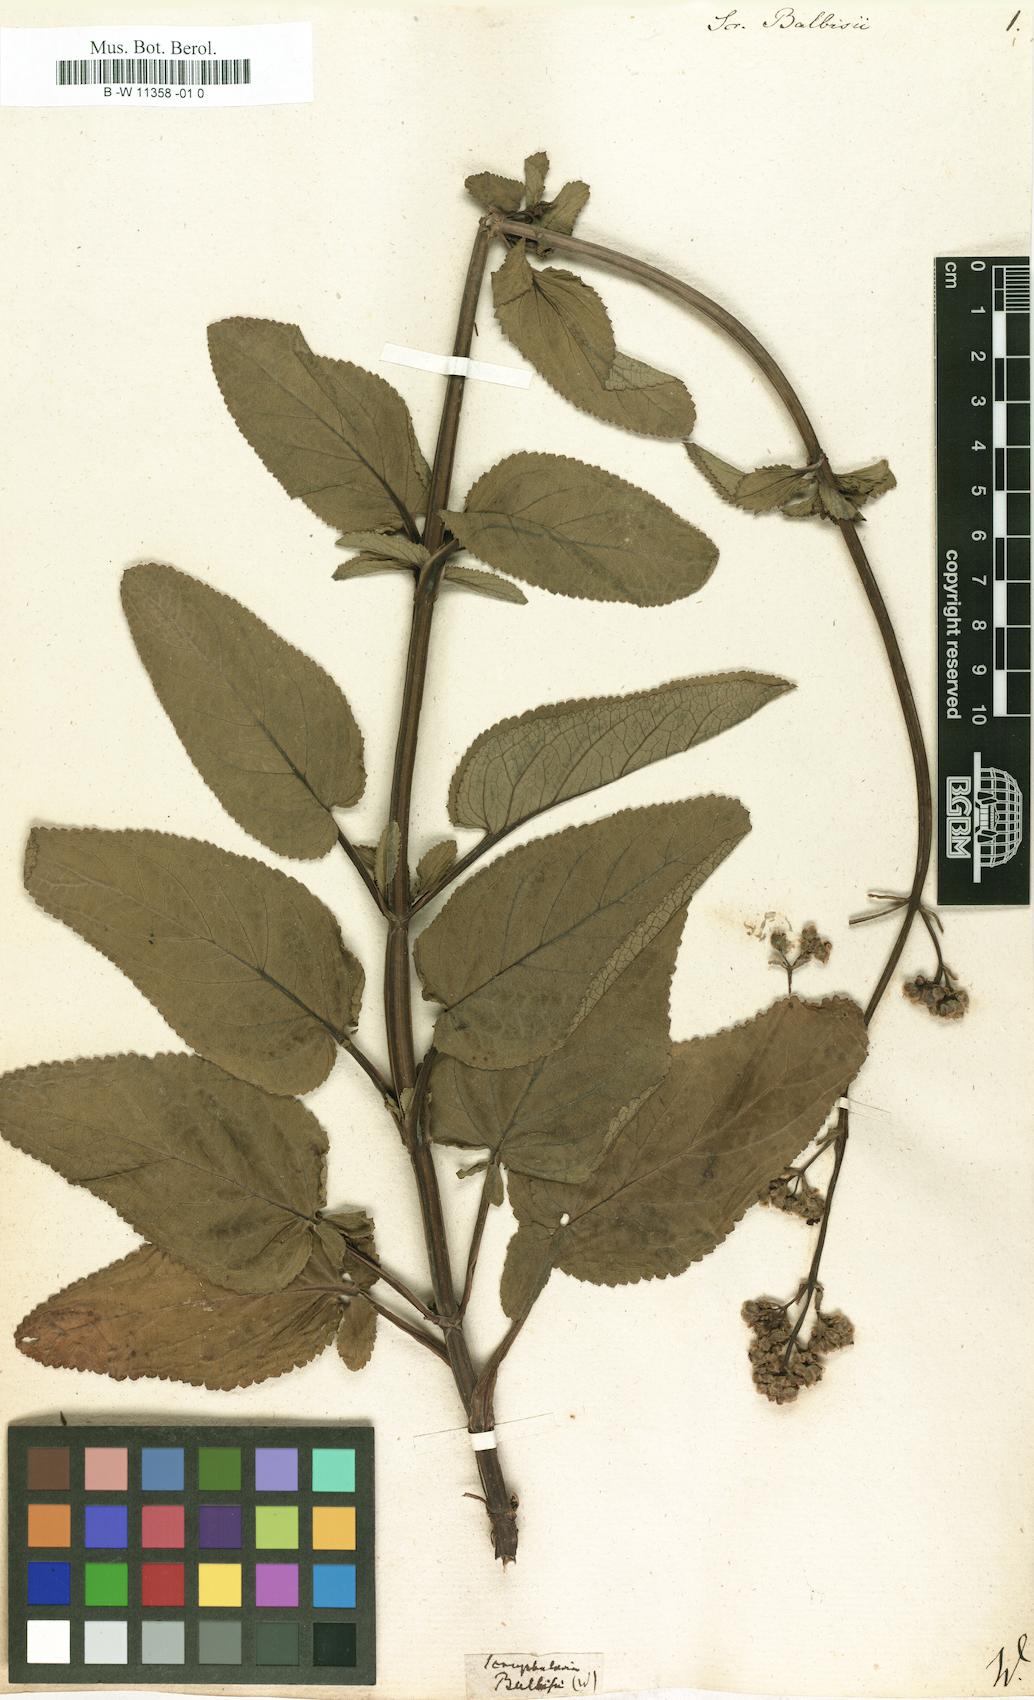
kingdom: Plantae
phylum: Tracheophyta
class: Magnoliopsida
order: Lamiales
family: Scrophulariaceae
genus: Scrophularia
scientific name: Scrophularia
